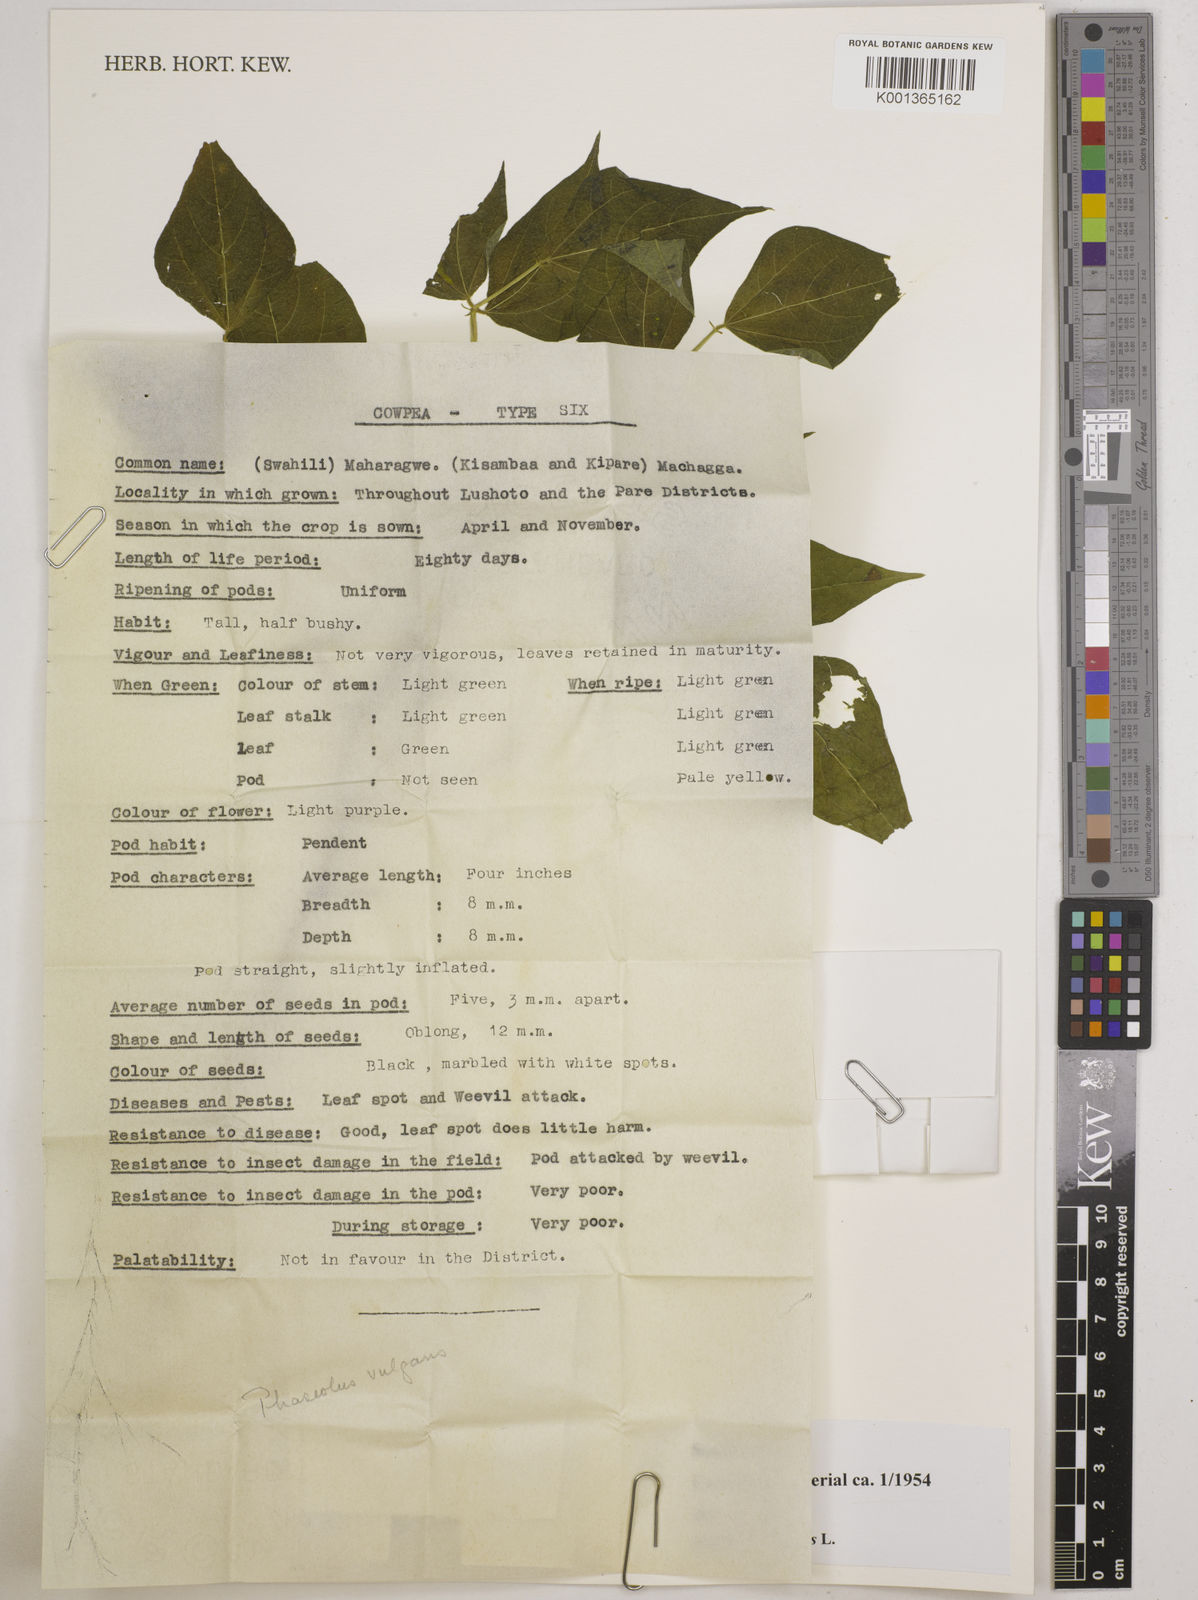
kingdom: Plantae
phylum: Tracheophyta
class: Magnoliopsida
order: Fabales
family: Fabaceae
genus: Phaseolus
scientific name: Phaseolus vulgaris
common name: Bean
